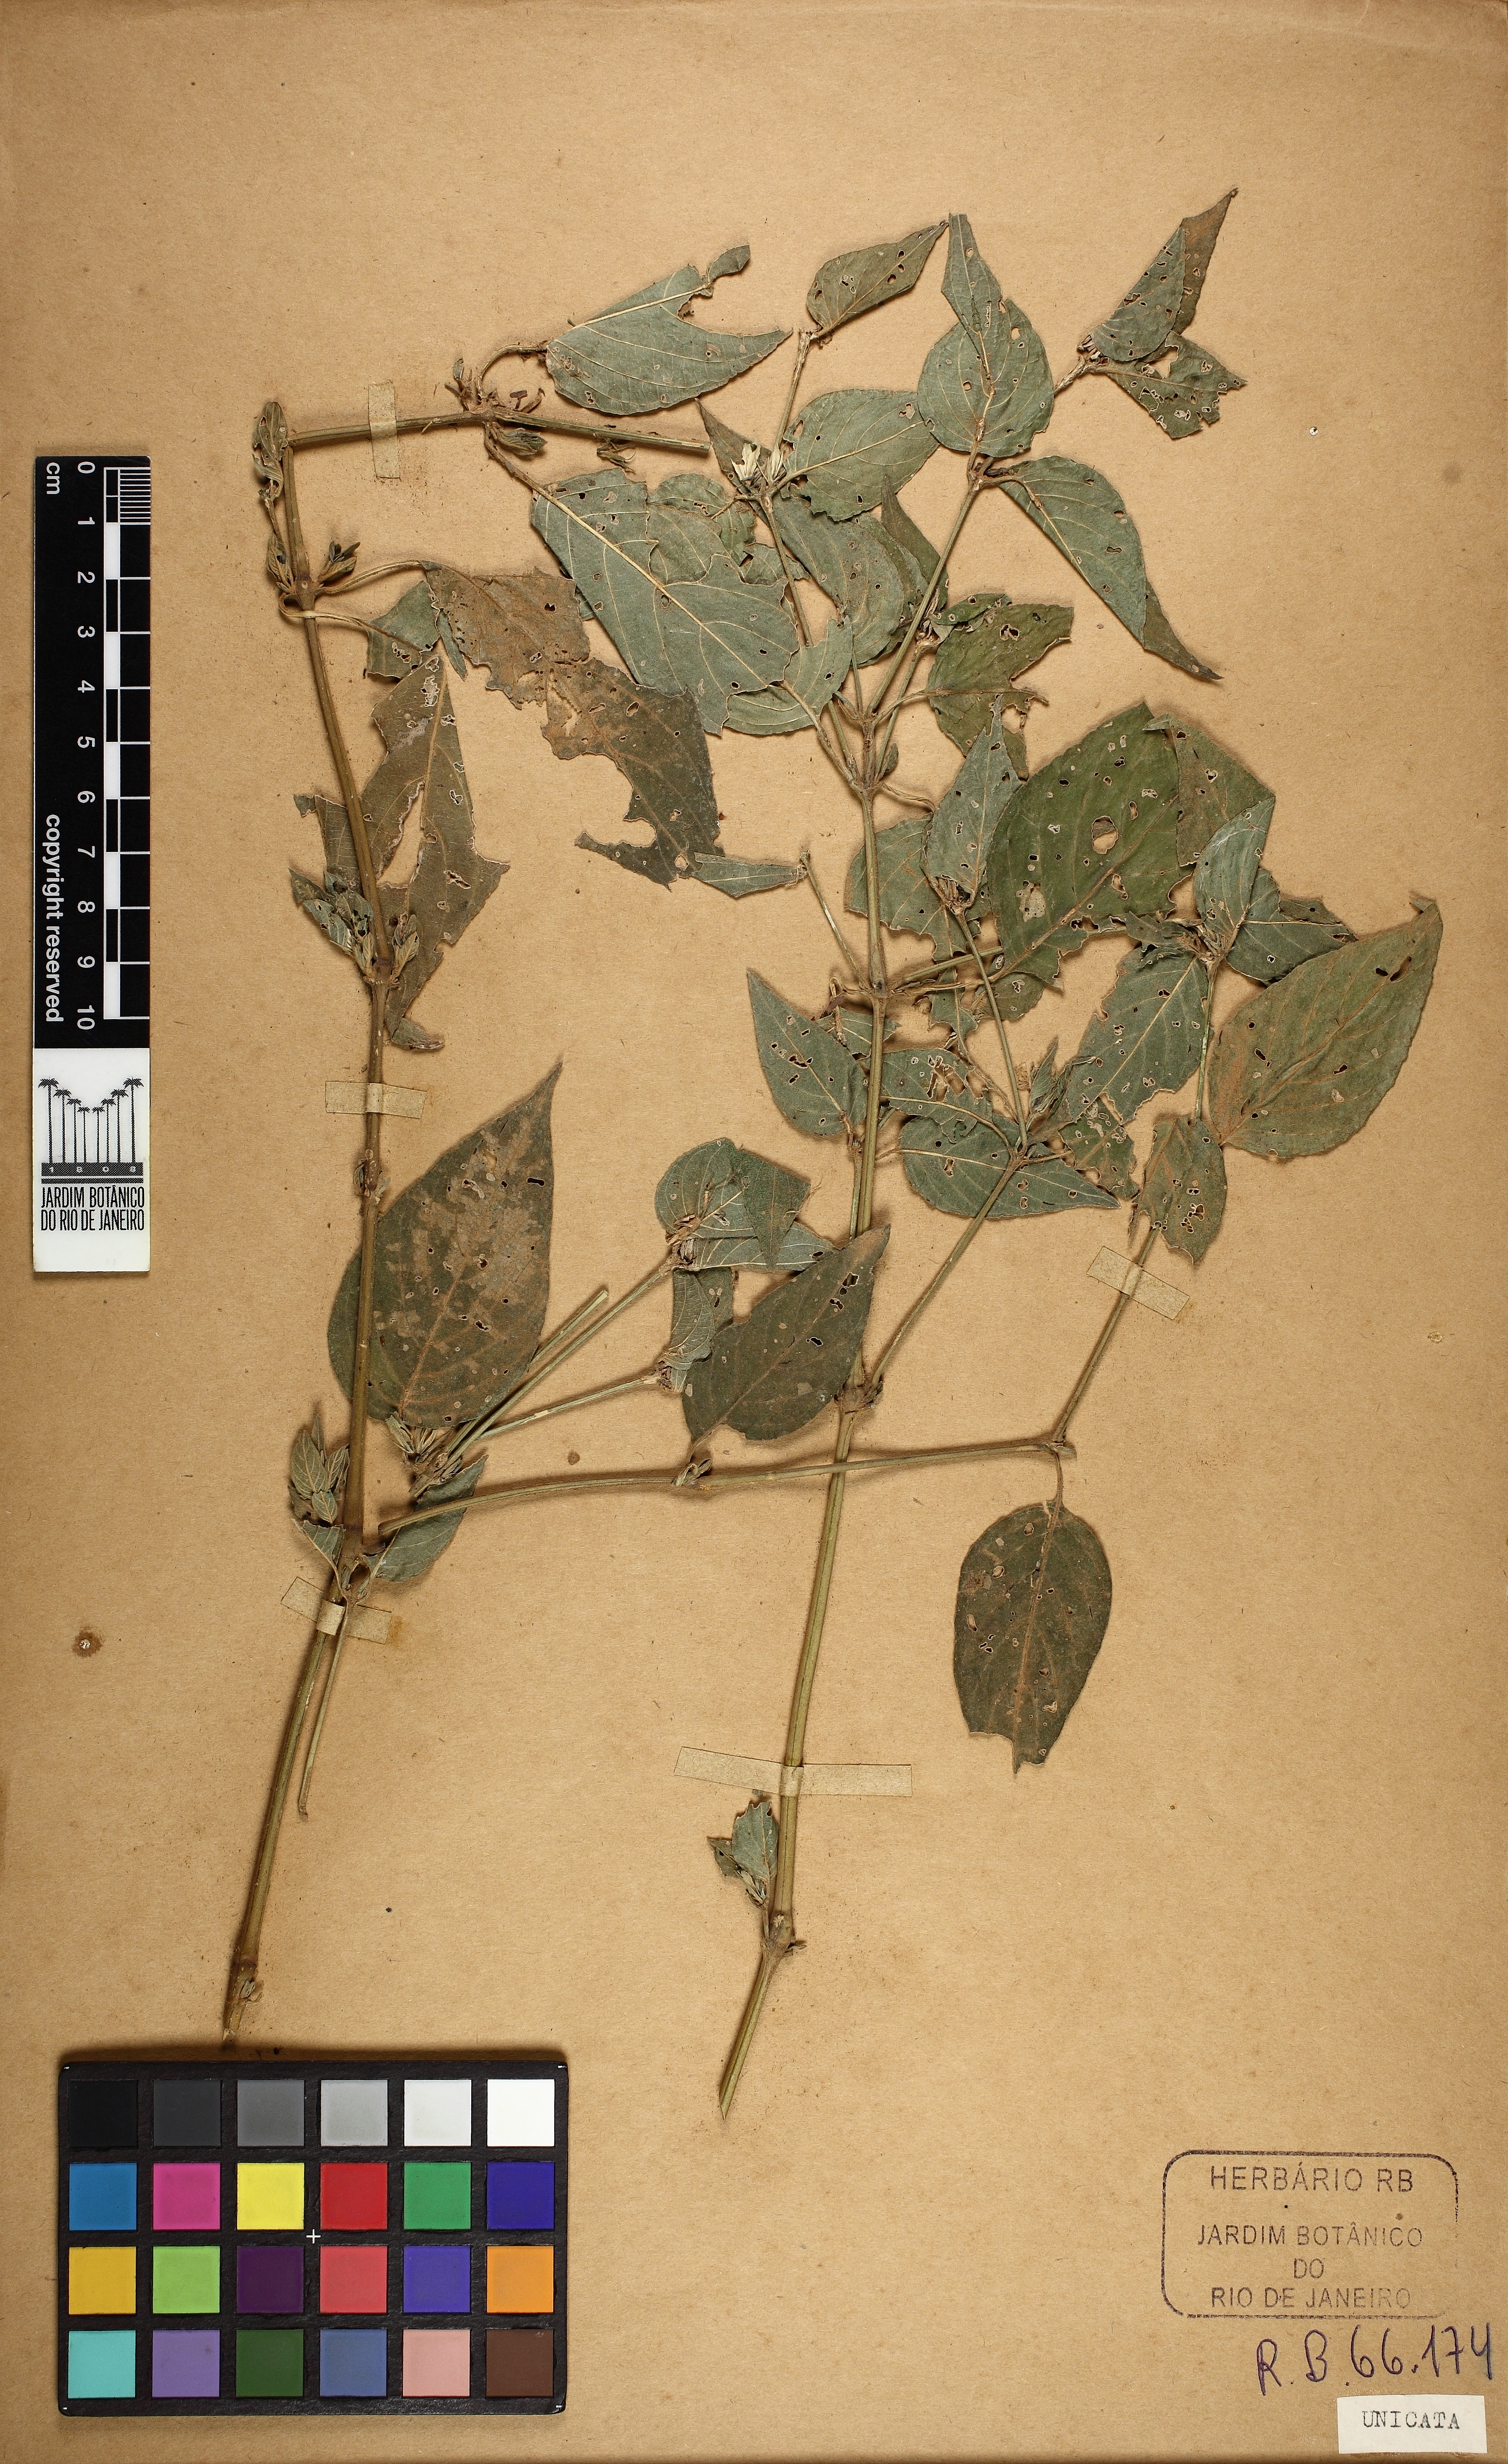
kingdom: Plantae
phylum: Tracheophyta
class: Magnoliopsida
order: Lamiales
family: Acanthaceae
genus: Justicia
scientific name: Justicia thunbergioides
